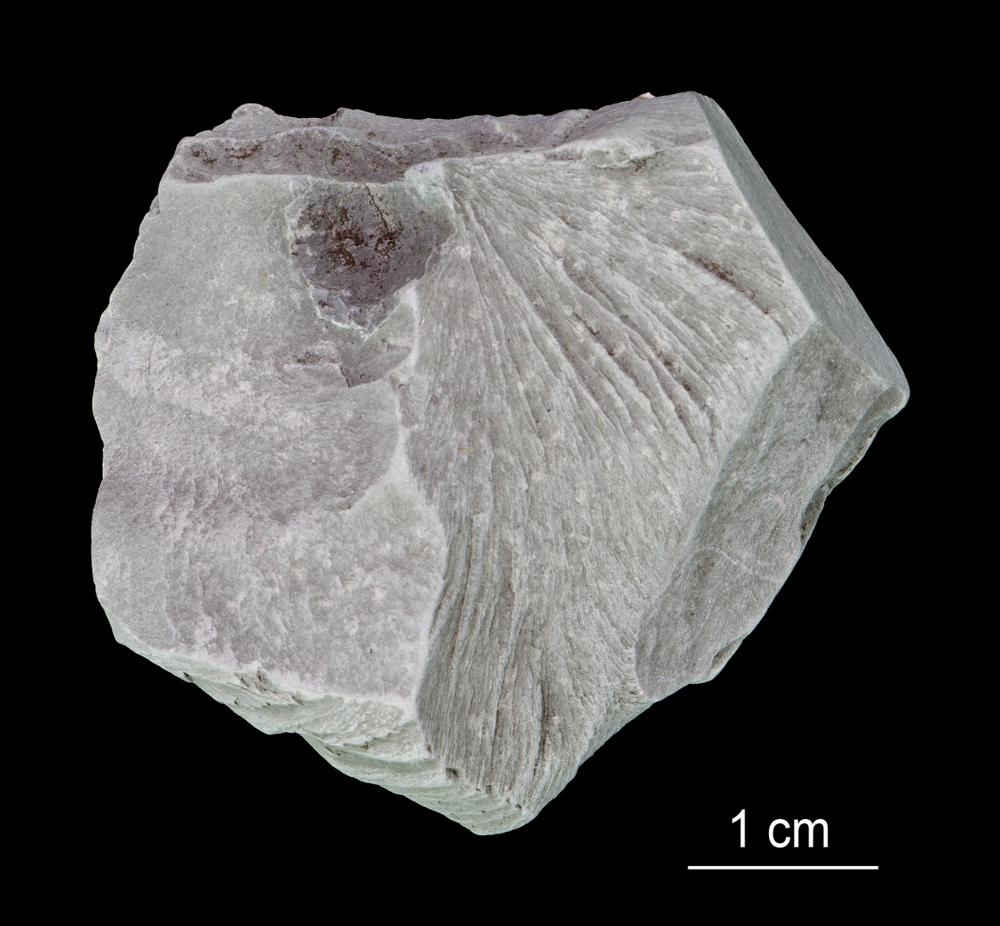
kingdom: Animalia
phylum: Annelida
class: Polychaeta
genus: Hyolithes
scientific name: Hyolithes
